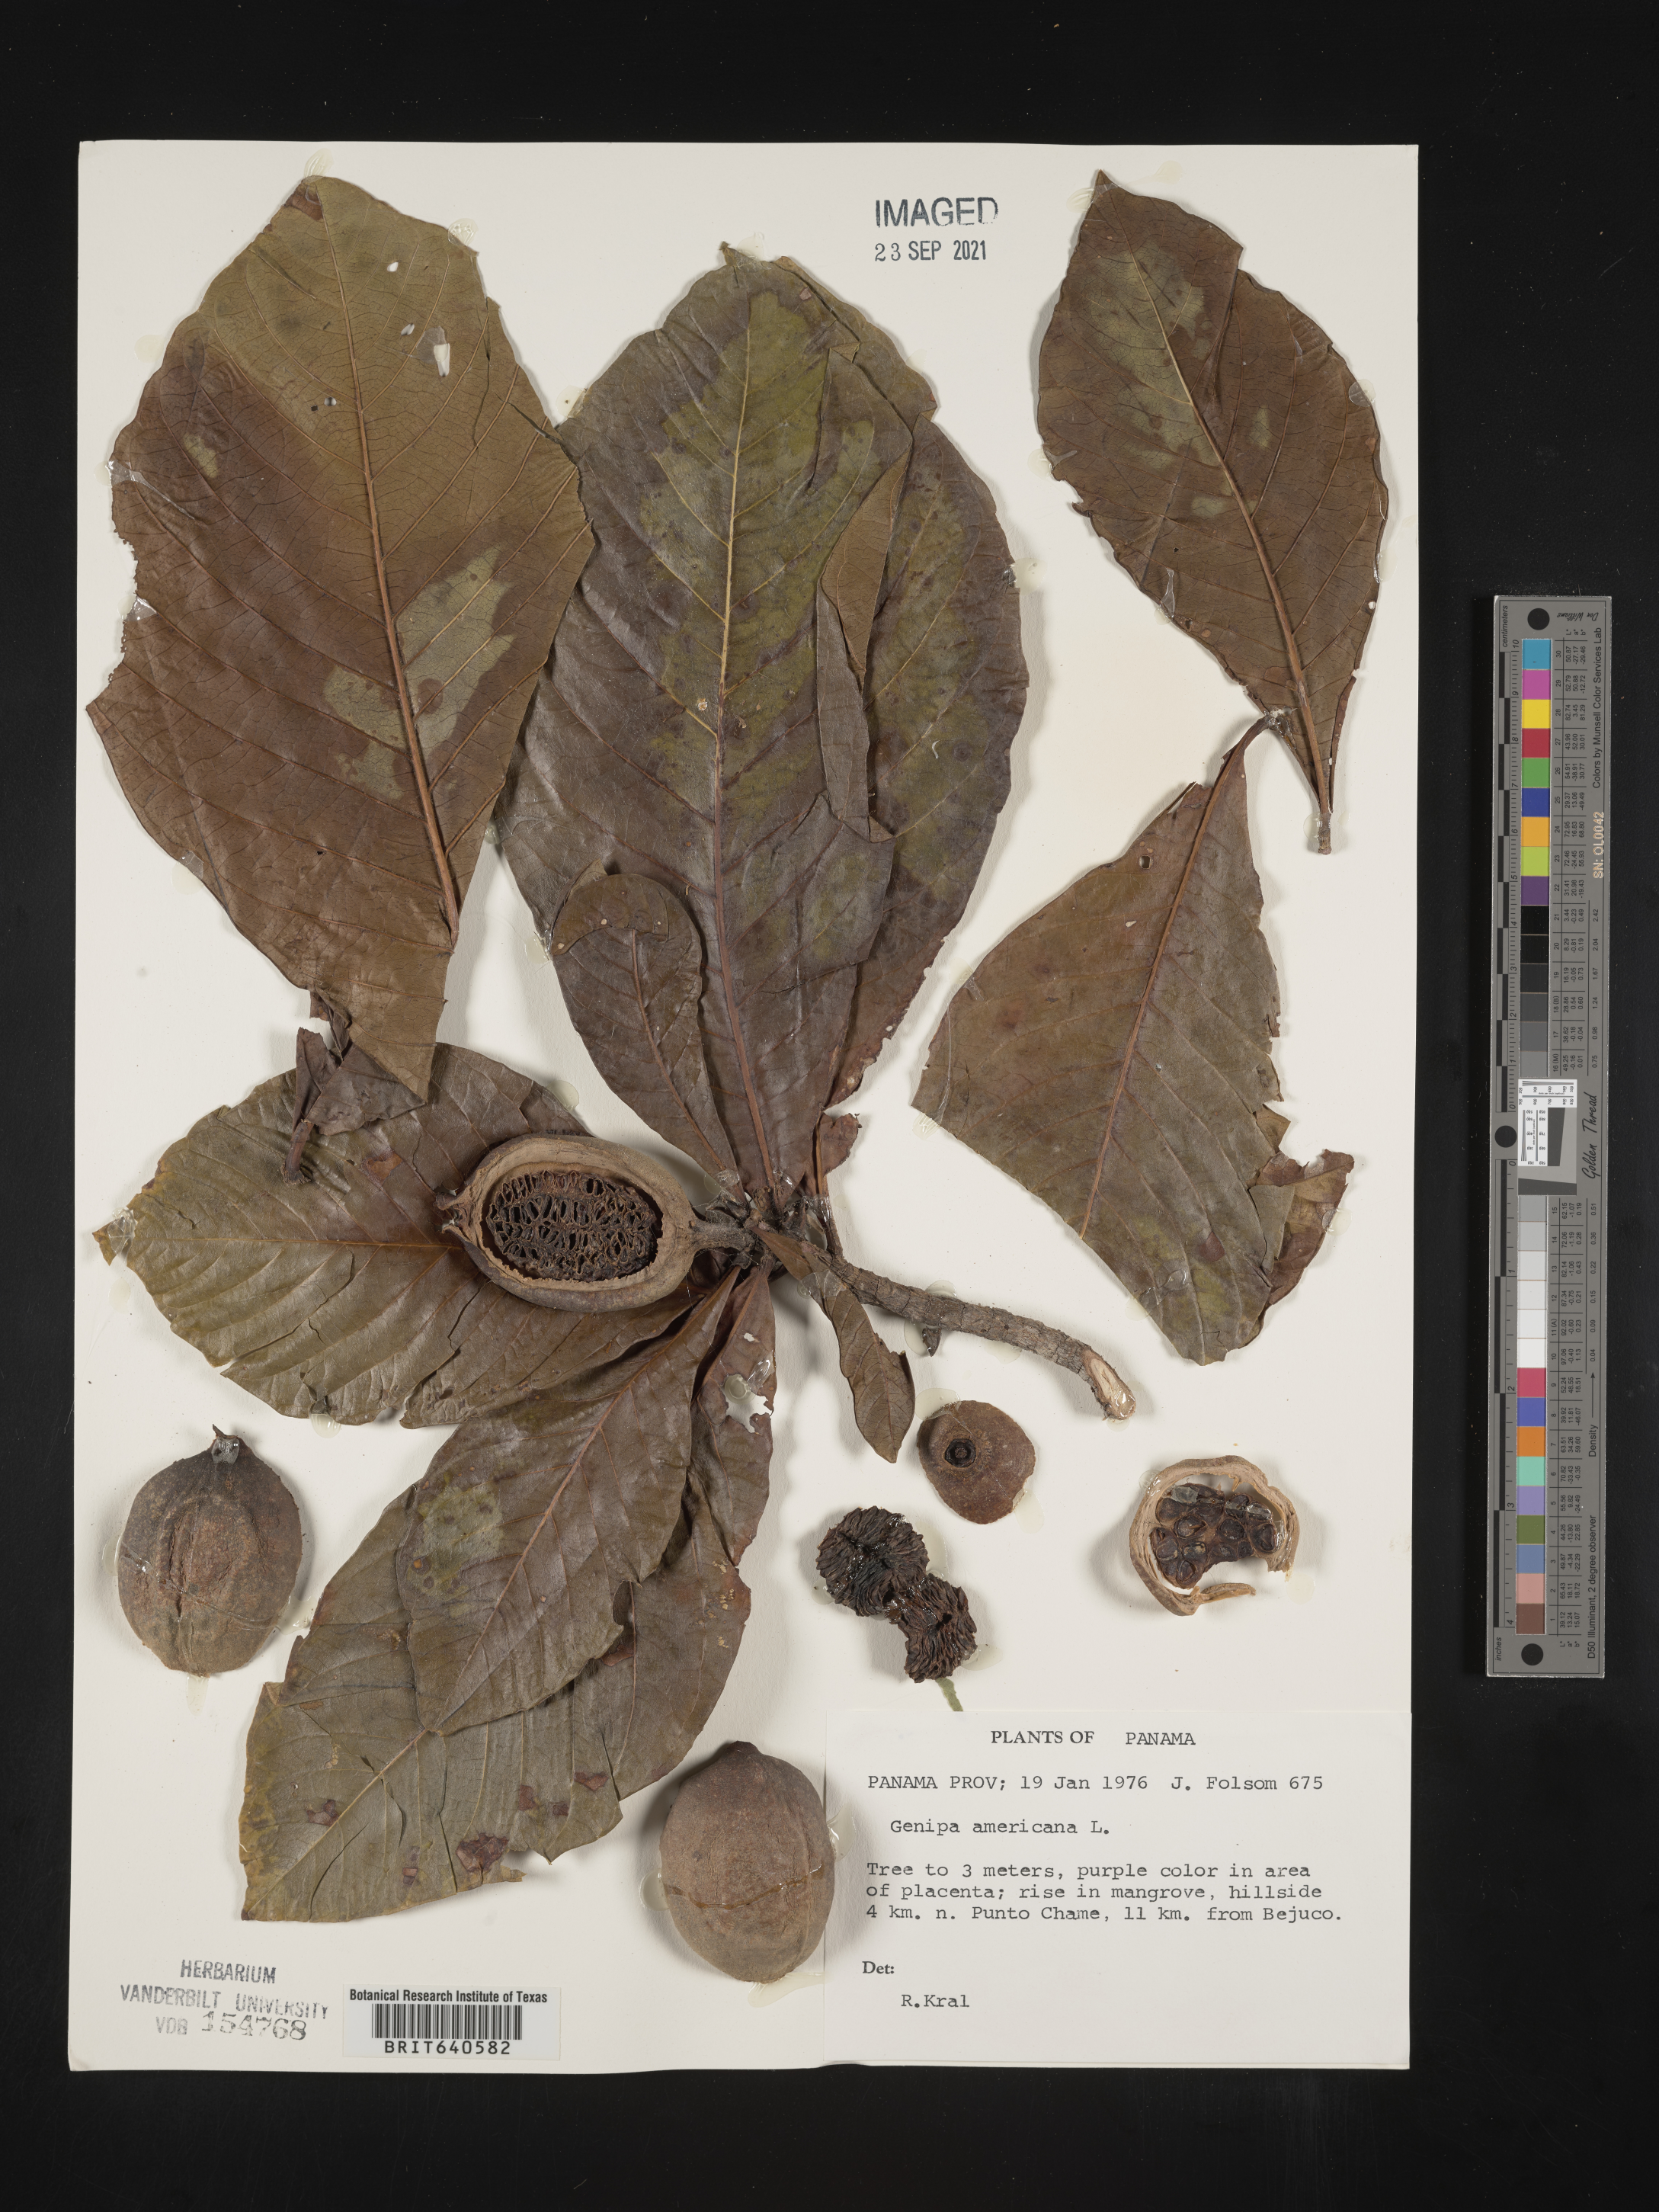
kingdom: Plantae
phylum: Tracheophyta
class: Magnoliopsida
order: Gentianales
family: Rubiaceae
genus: Genipa
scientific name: Genipa
